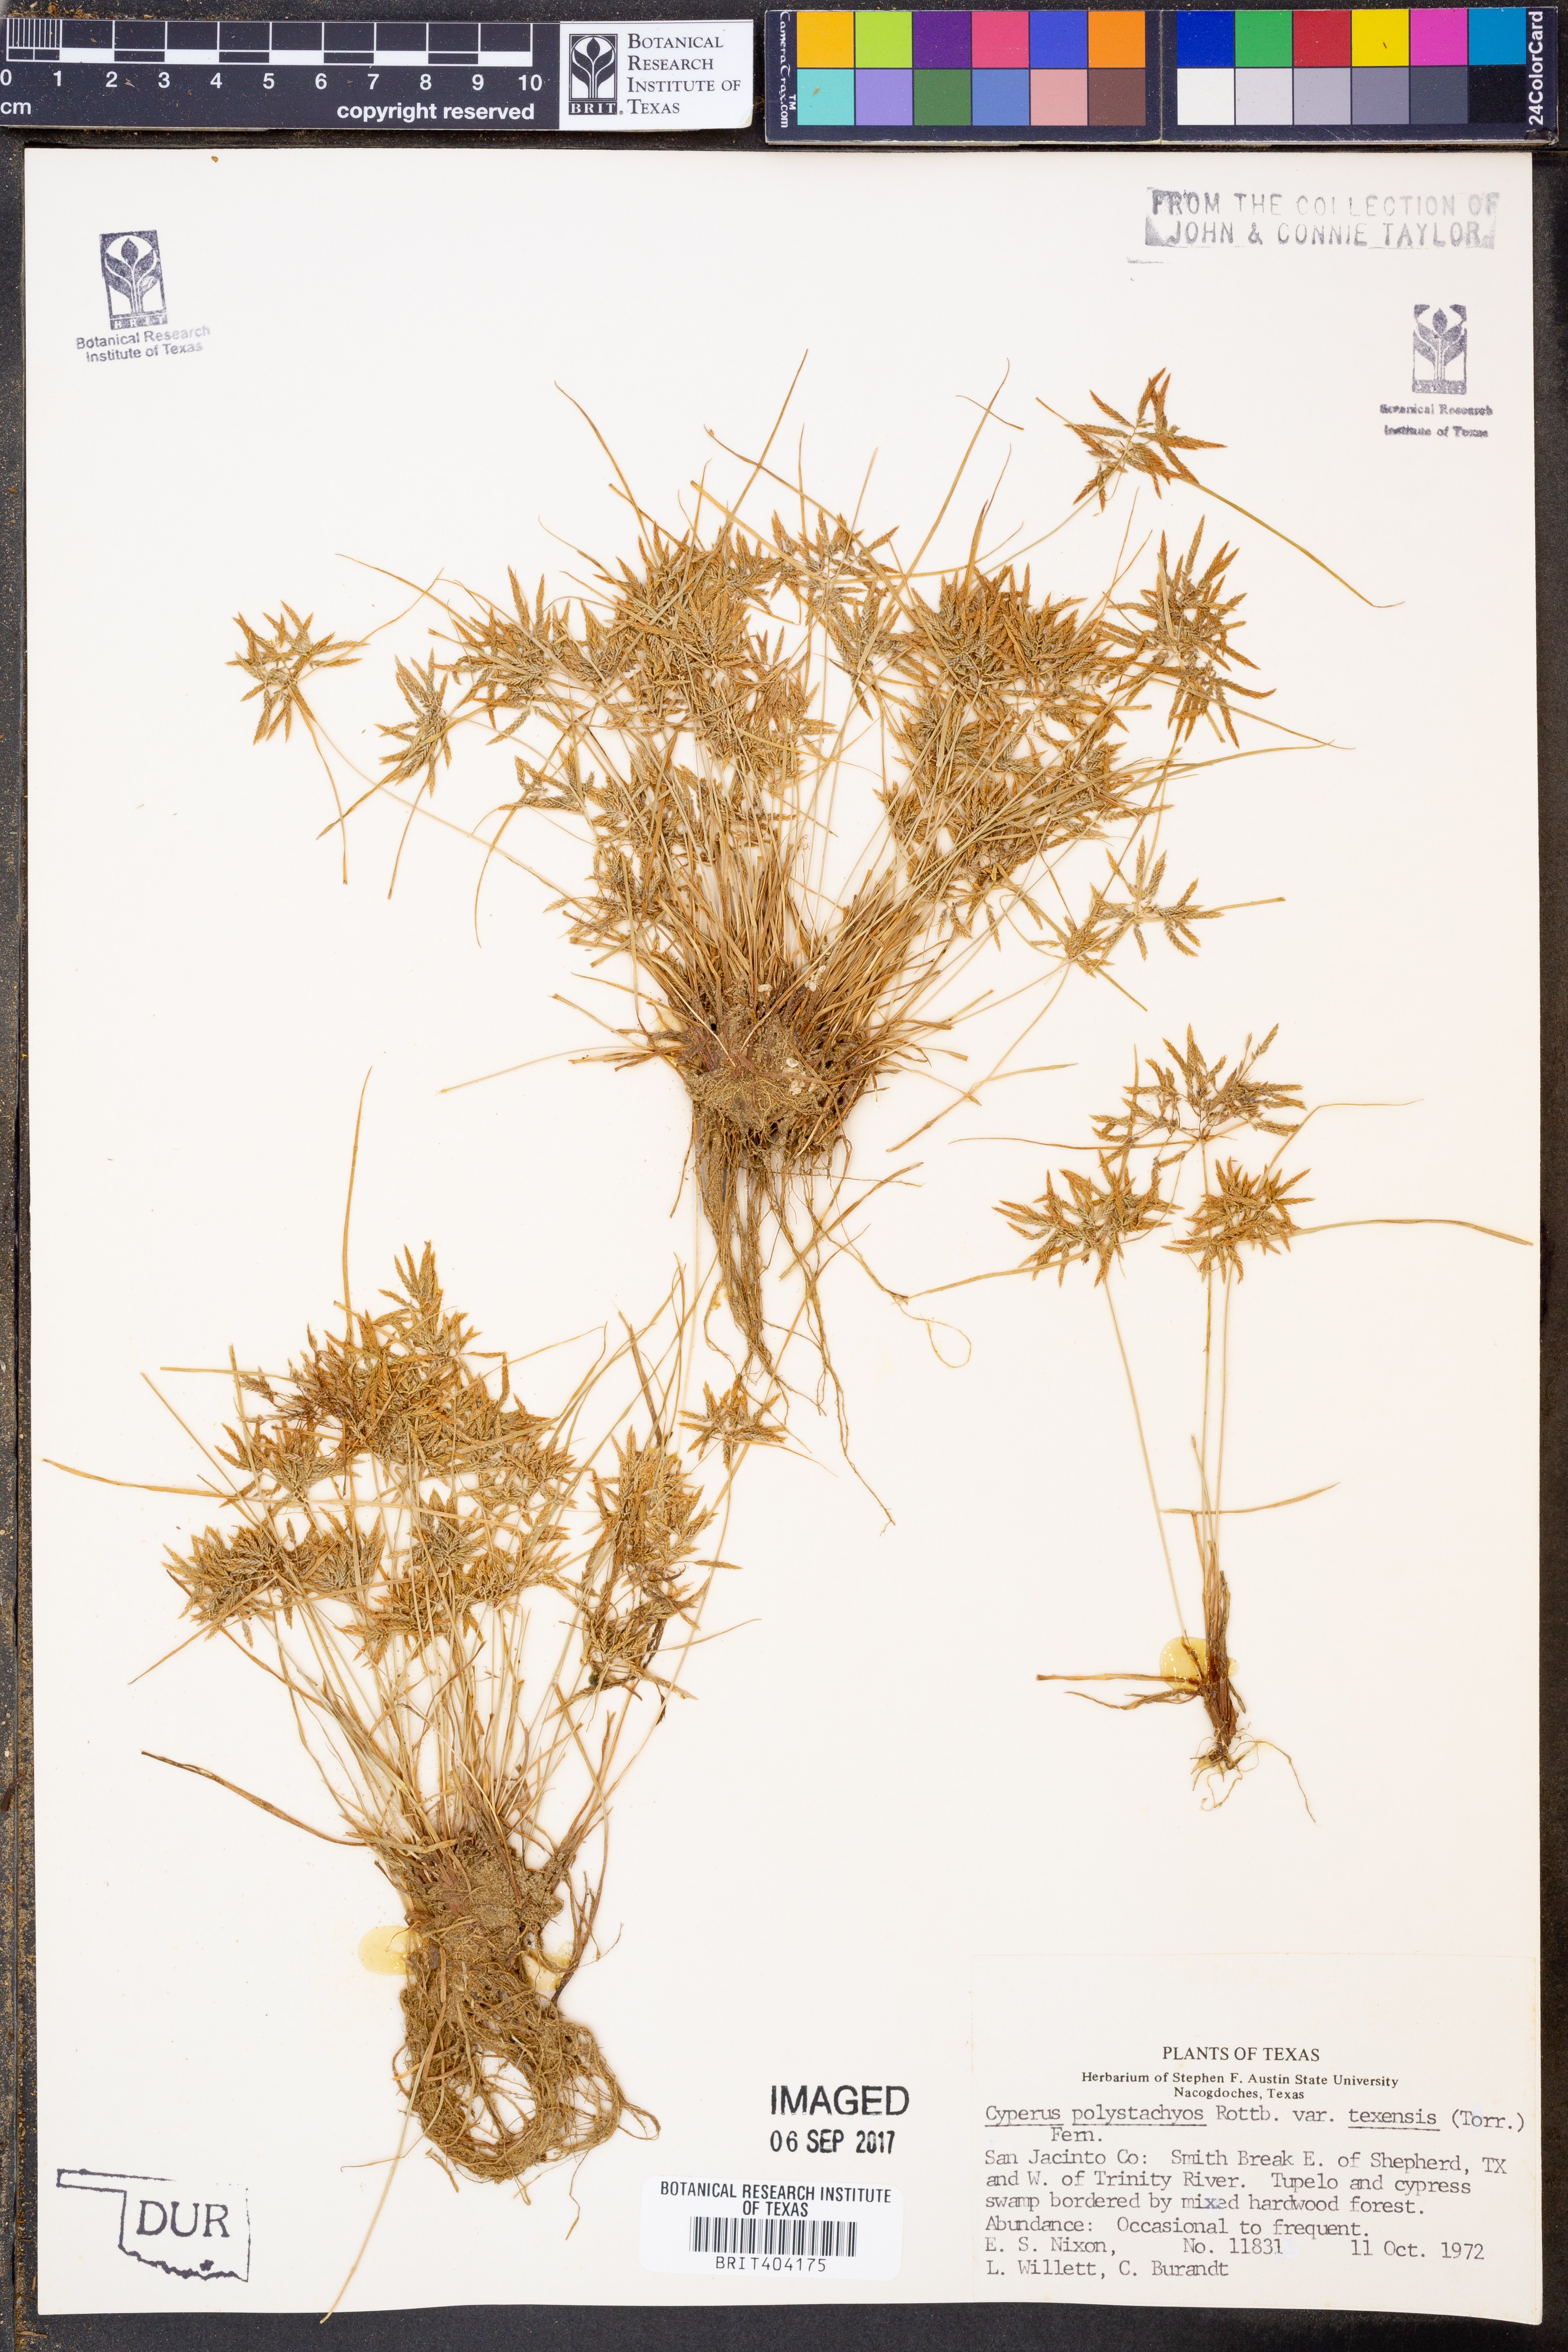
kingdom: Plantae
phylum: Tracheophyta
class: Liliopsida
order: Poales
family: Cyperaceae
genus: Cyperus
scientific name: Cyperus polystachyos
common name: Bunchy flat sedge
